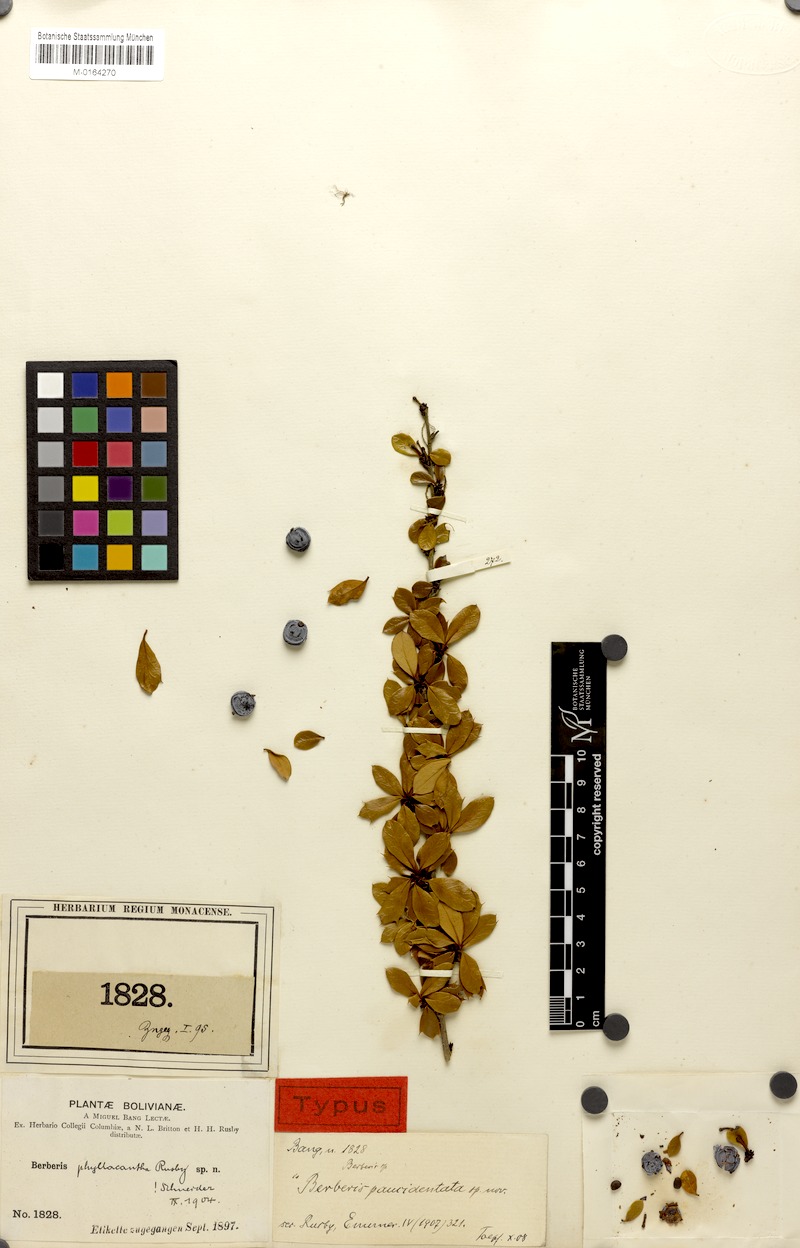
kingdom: Plantae
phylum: Tracheophyta
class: Magnoliopsida
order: Ranunculales
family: Berberidaceae
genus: Berberis
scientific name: Berberis phyllacantha
